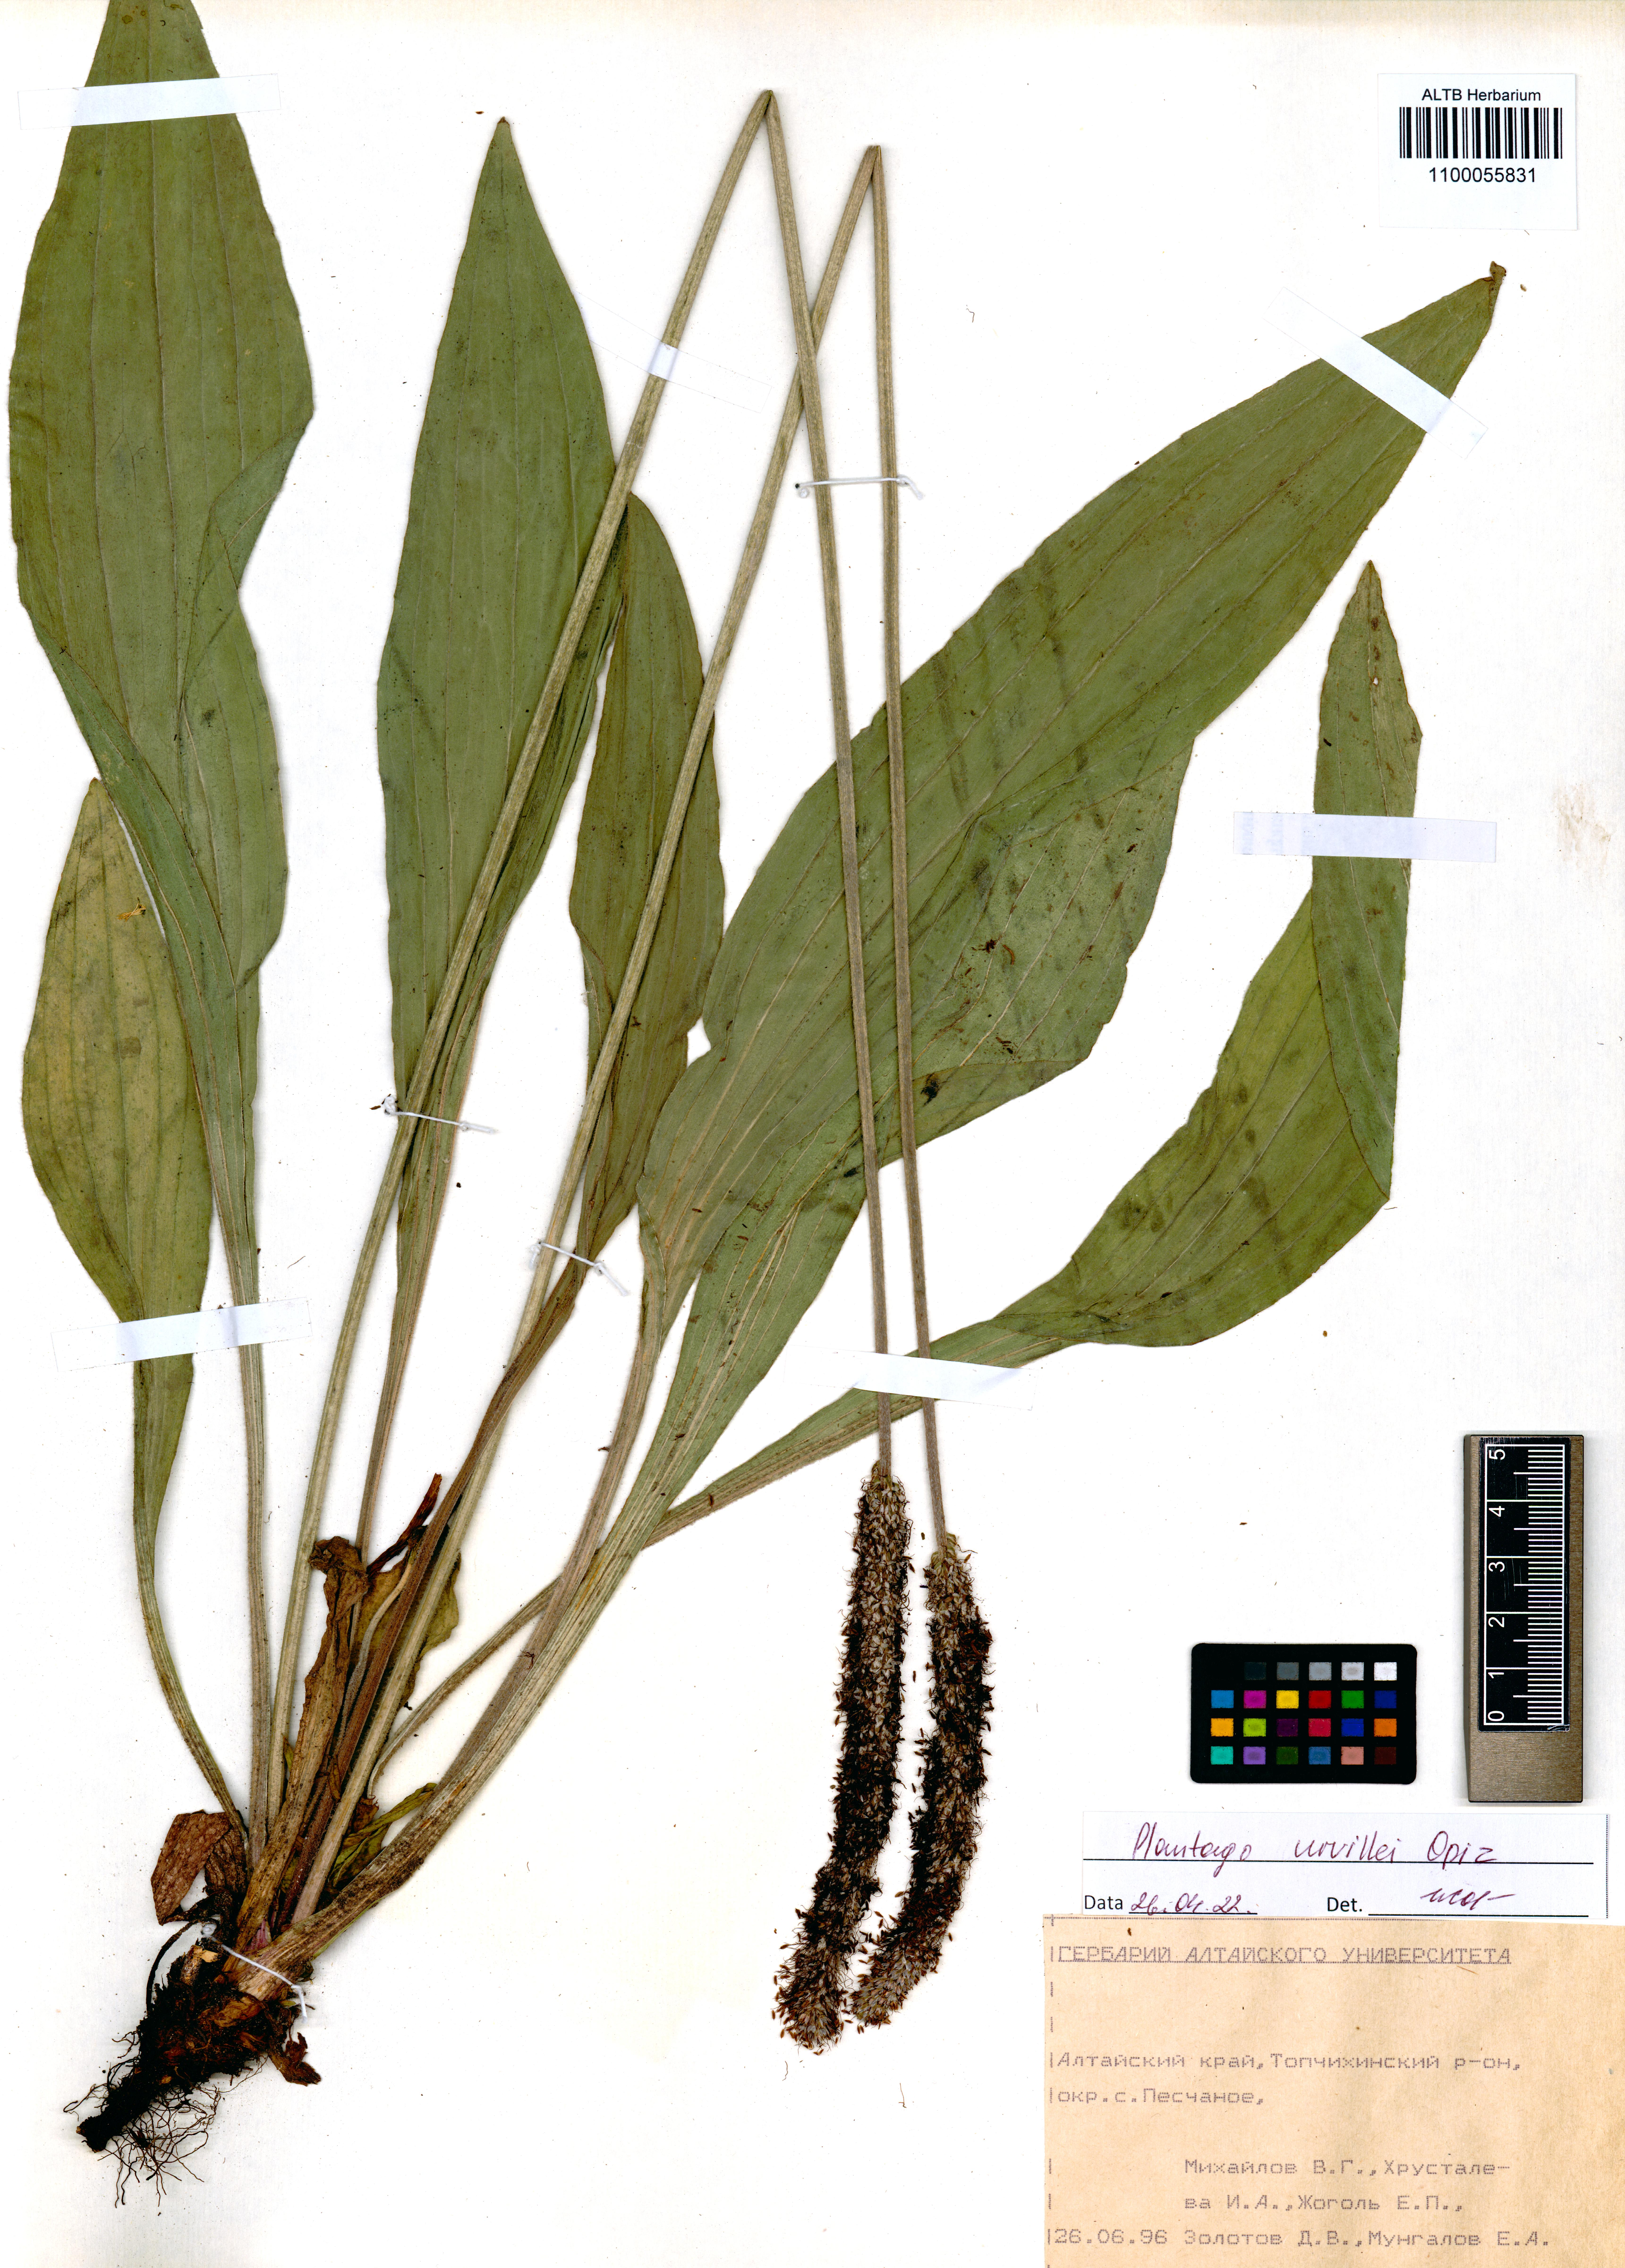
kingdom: Plantae
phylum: Tracheophyta
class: Magnoliopsida
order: Lamiales
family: Plantaginaceae
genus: Plantago
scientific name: Plantago urvillei
